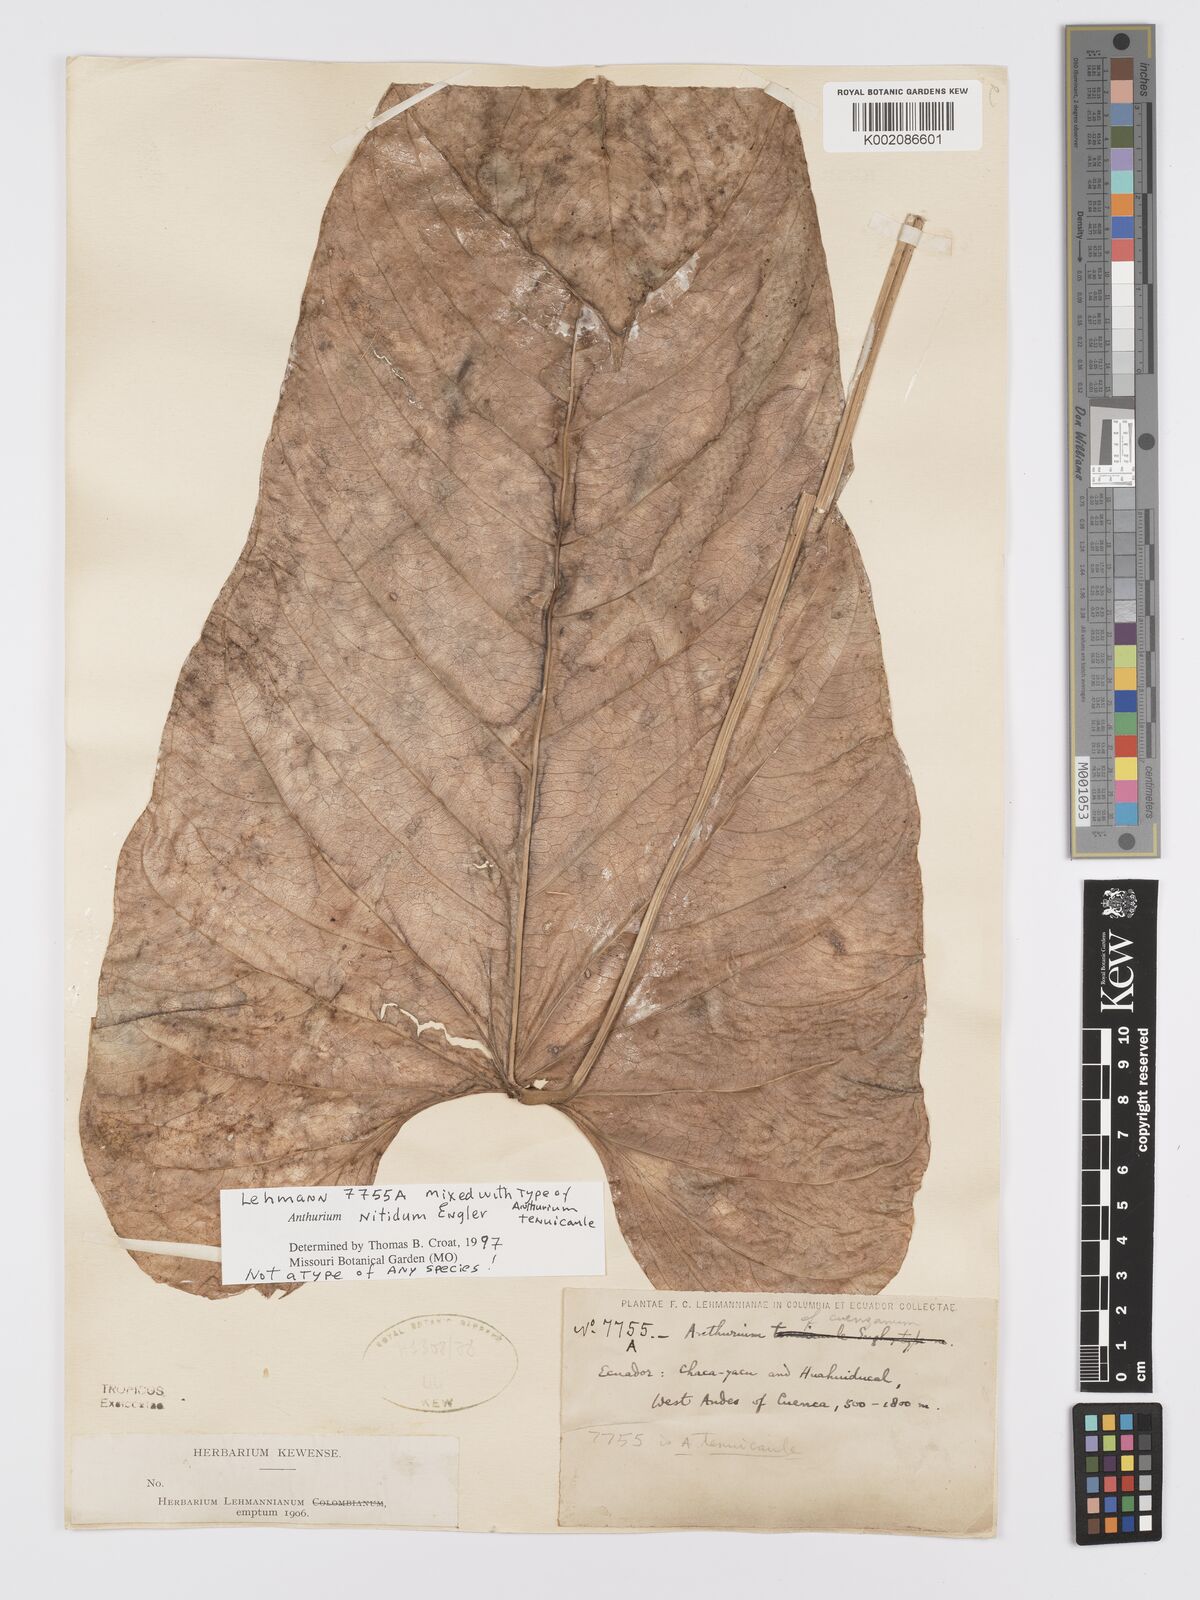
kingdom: Plantae
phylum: Tracheophyta
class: Liliopsida
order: Alismatales
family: Araceae
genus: Anthurium
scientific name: Anthurium nitidum
